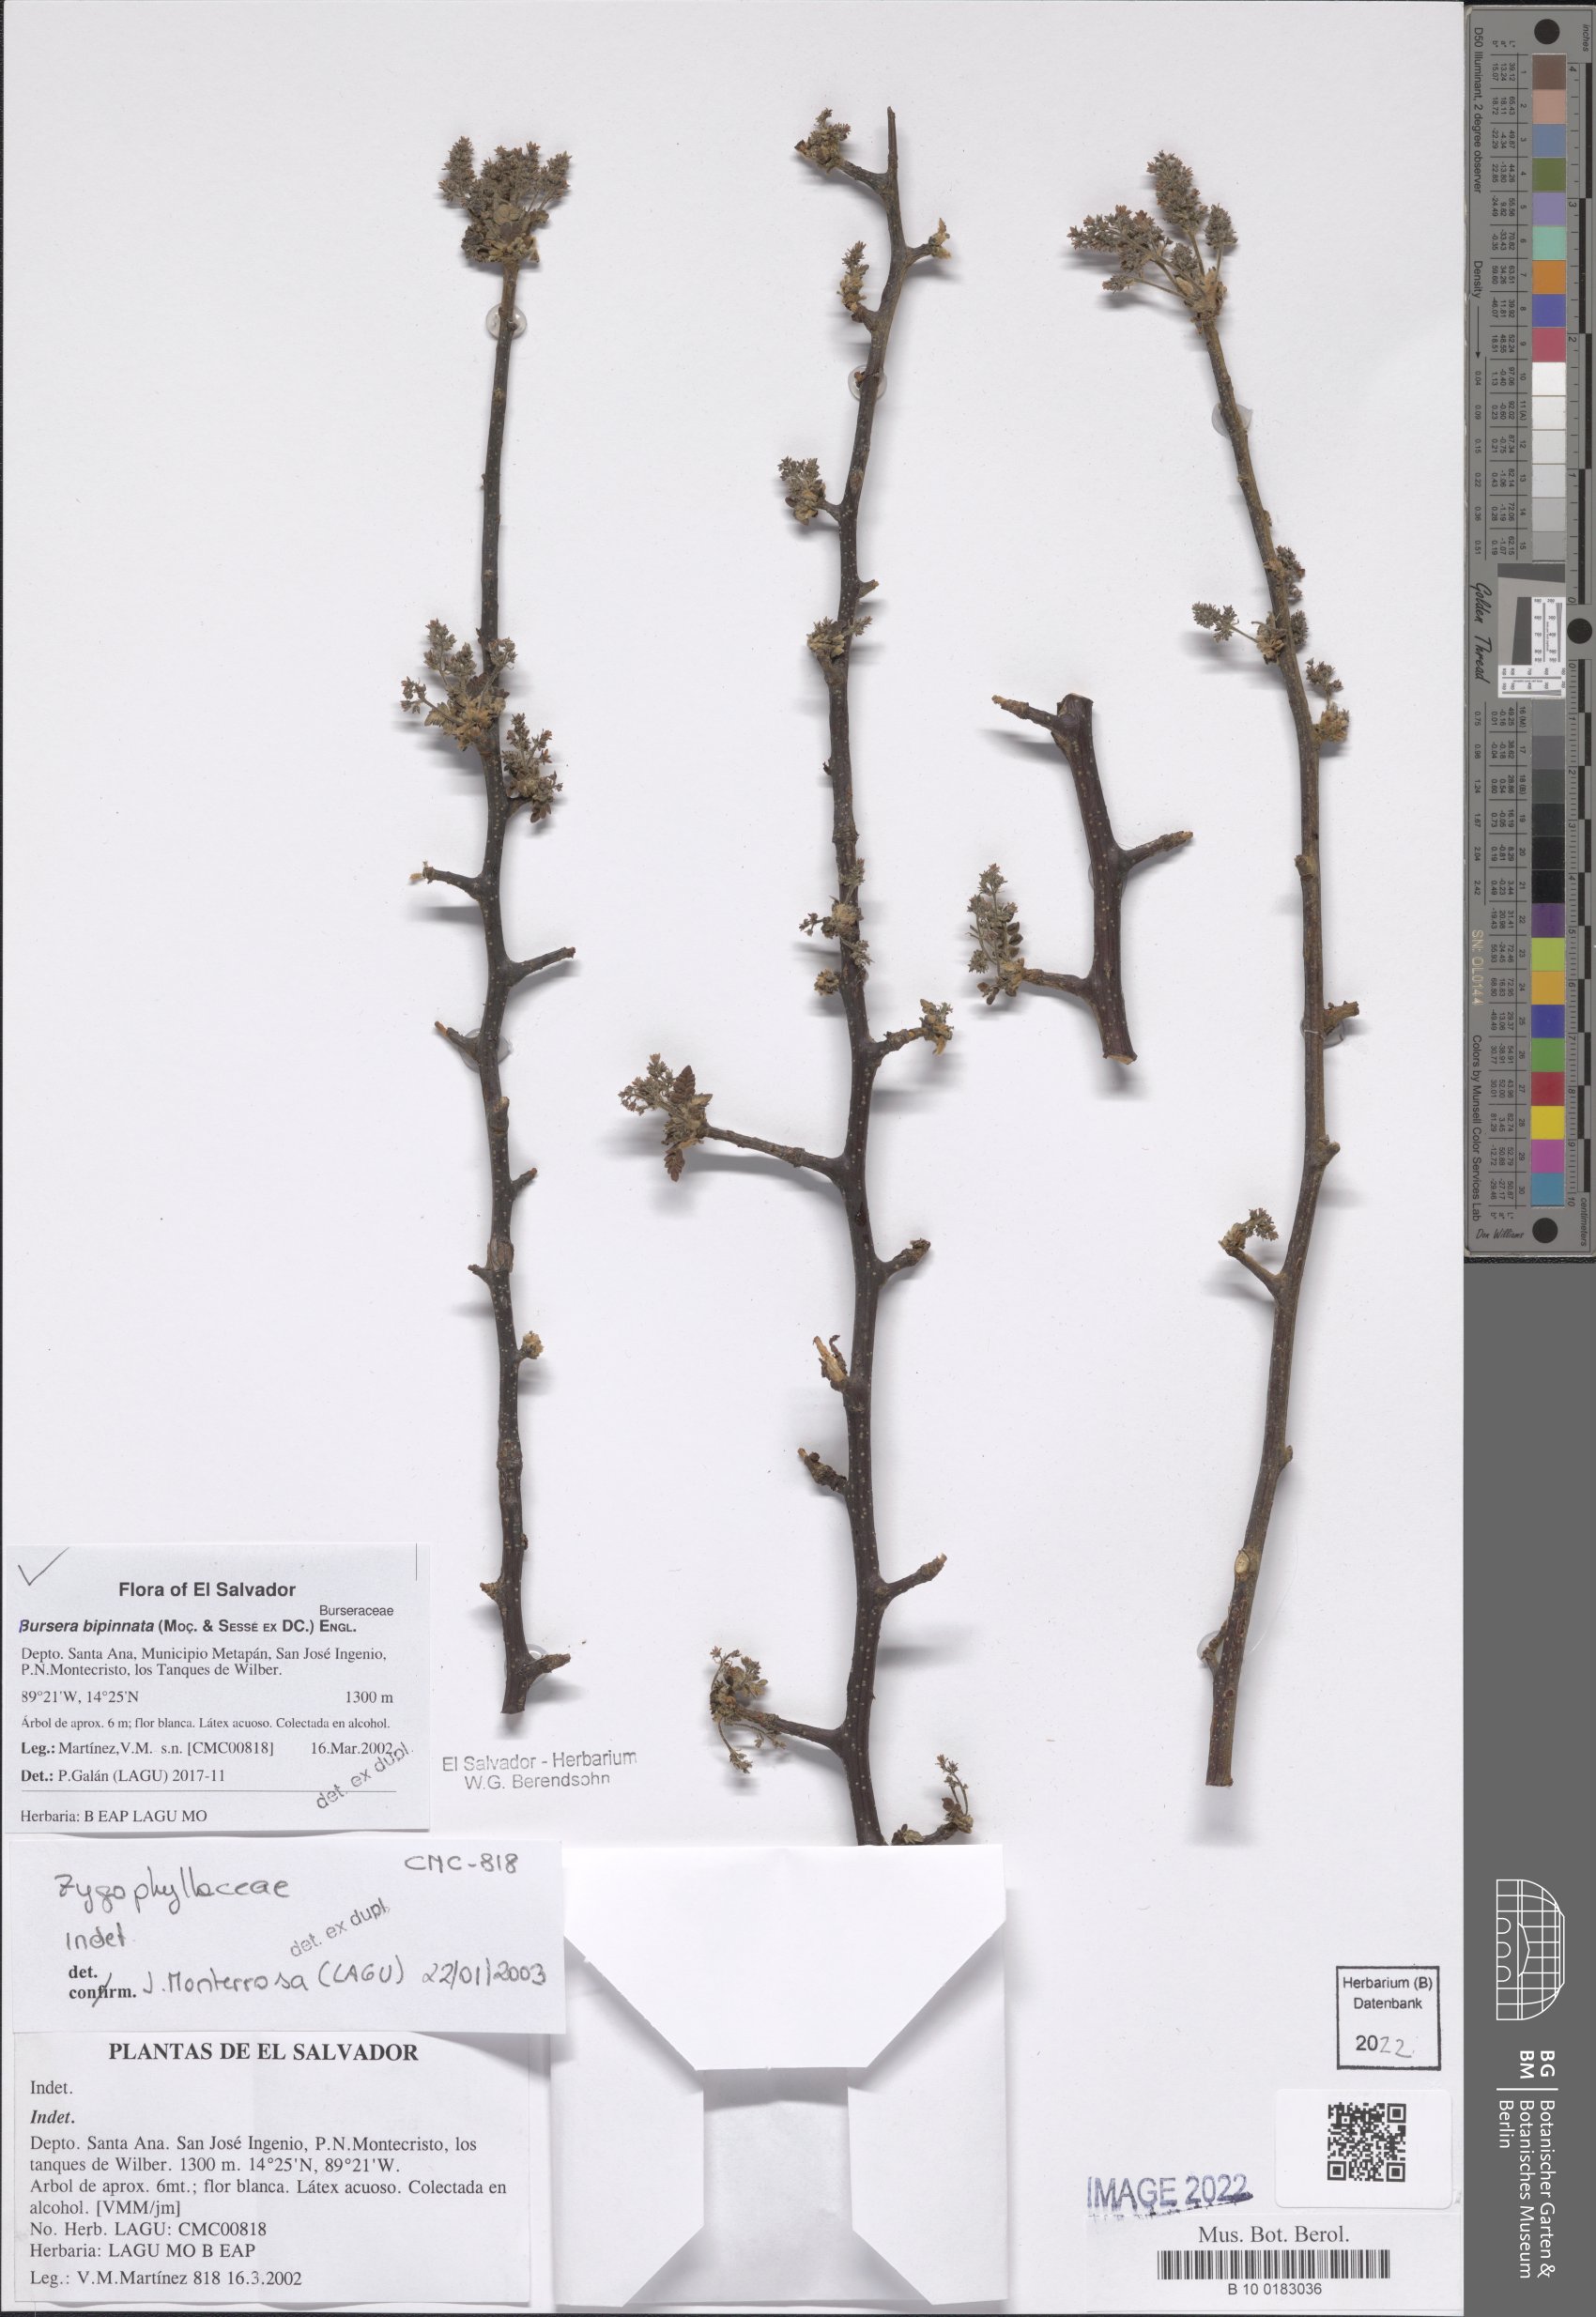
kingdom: Plantae
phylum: Tracheophyta
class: Magnoliopsida
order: Sapindales
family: Burseraceae
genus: Bursera
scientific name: Bursera bipinnata
